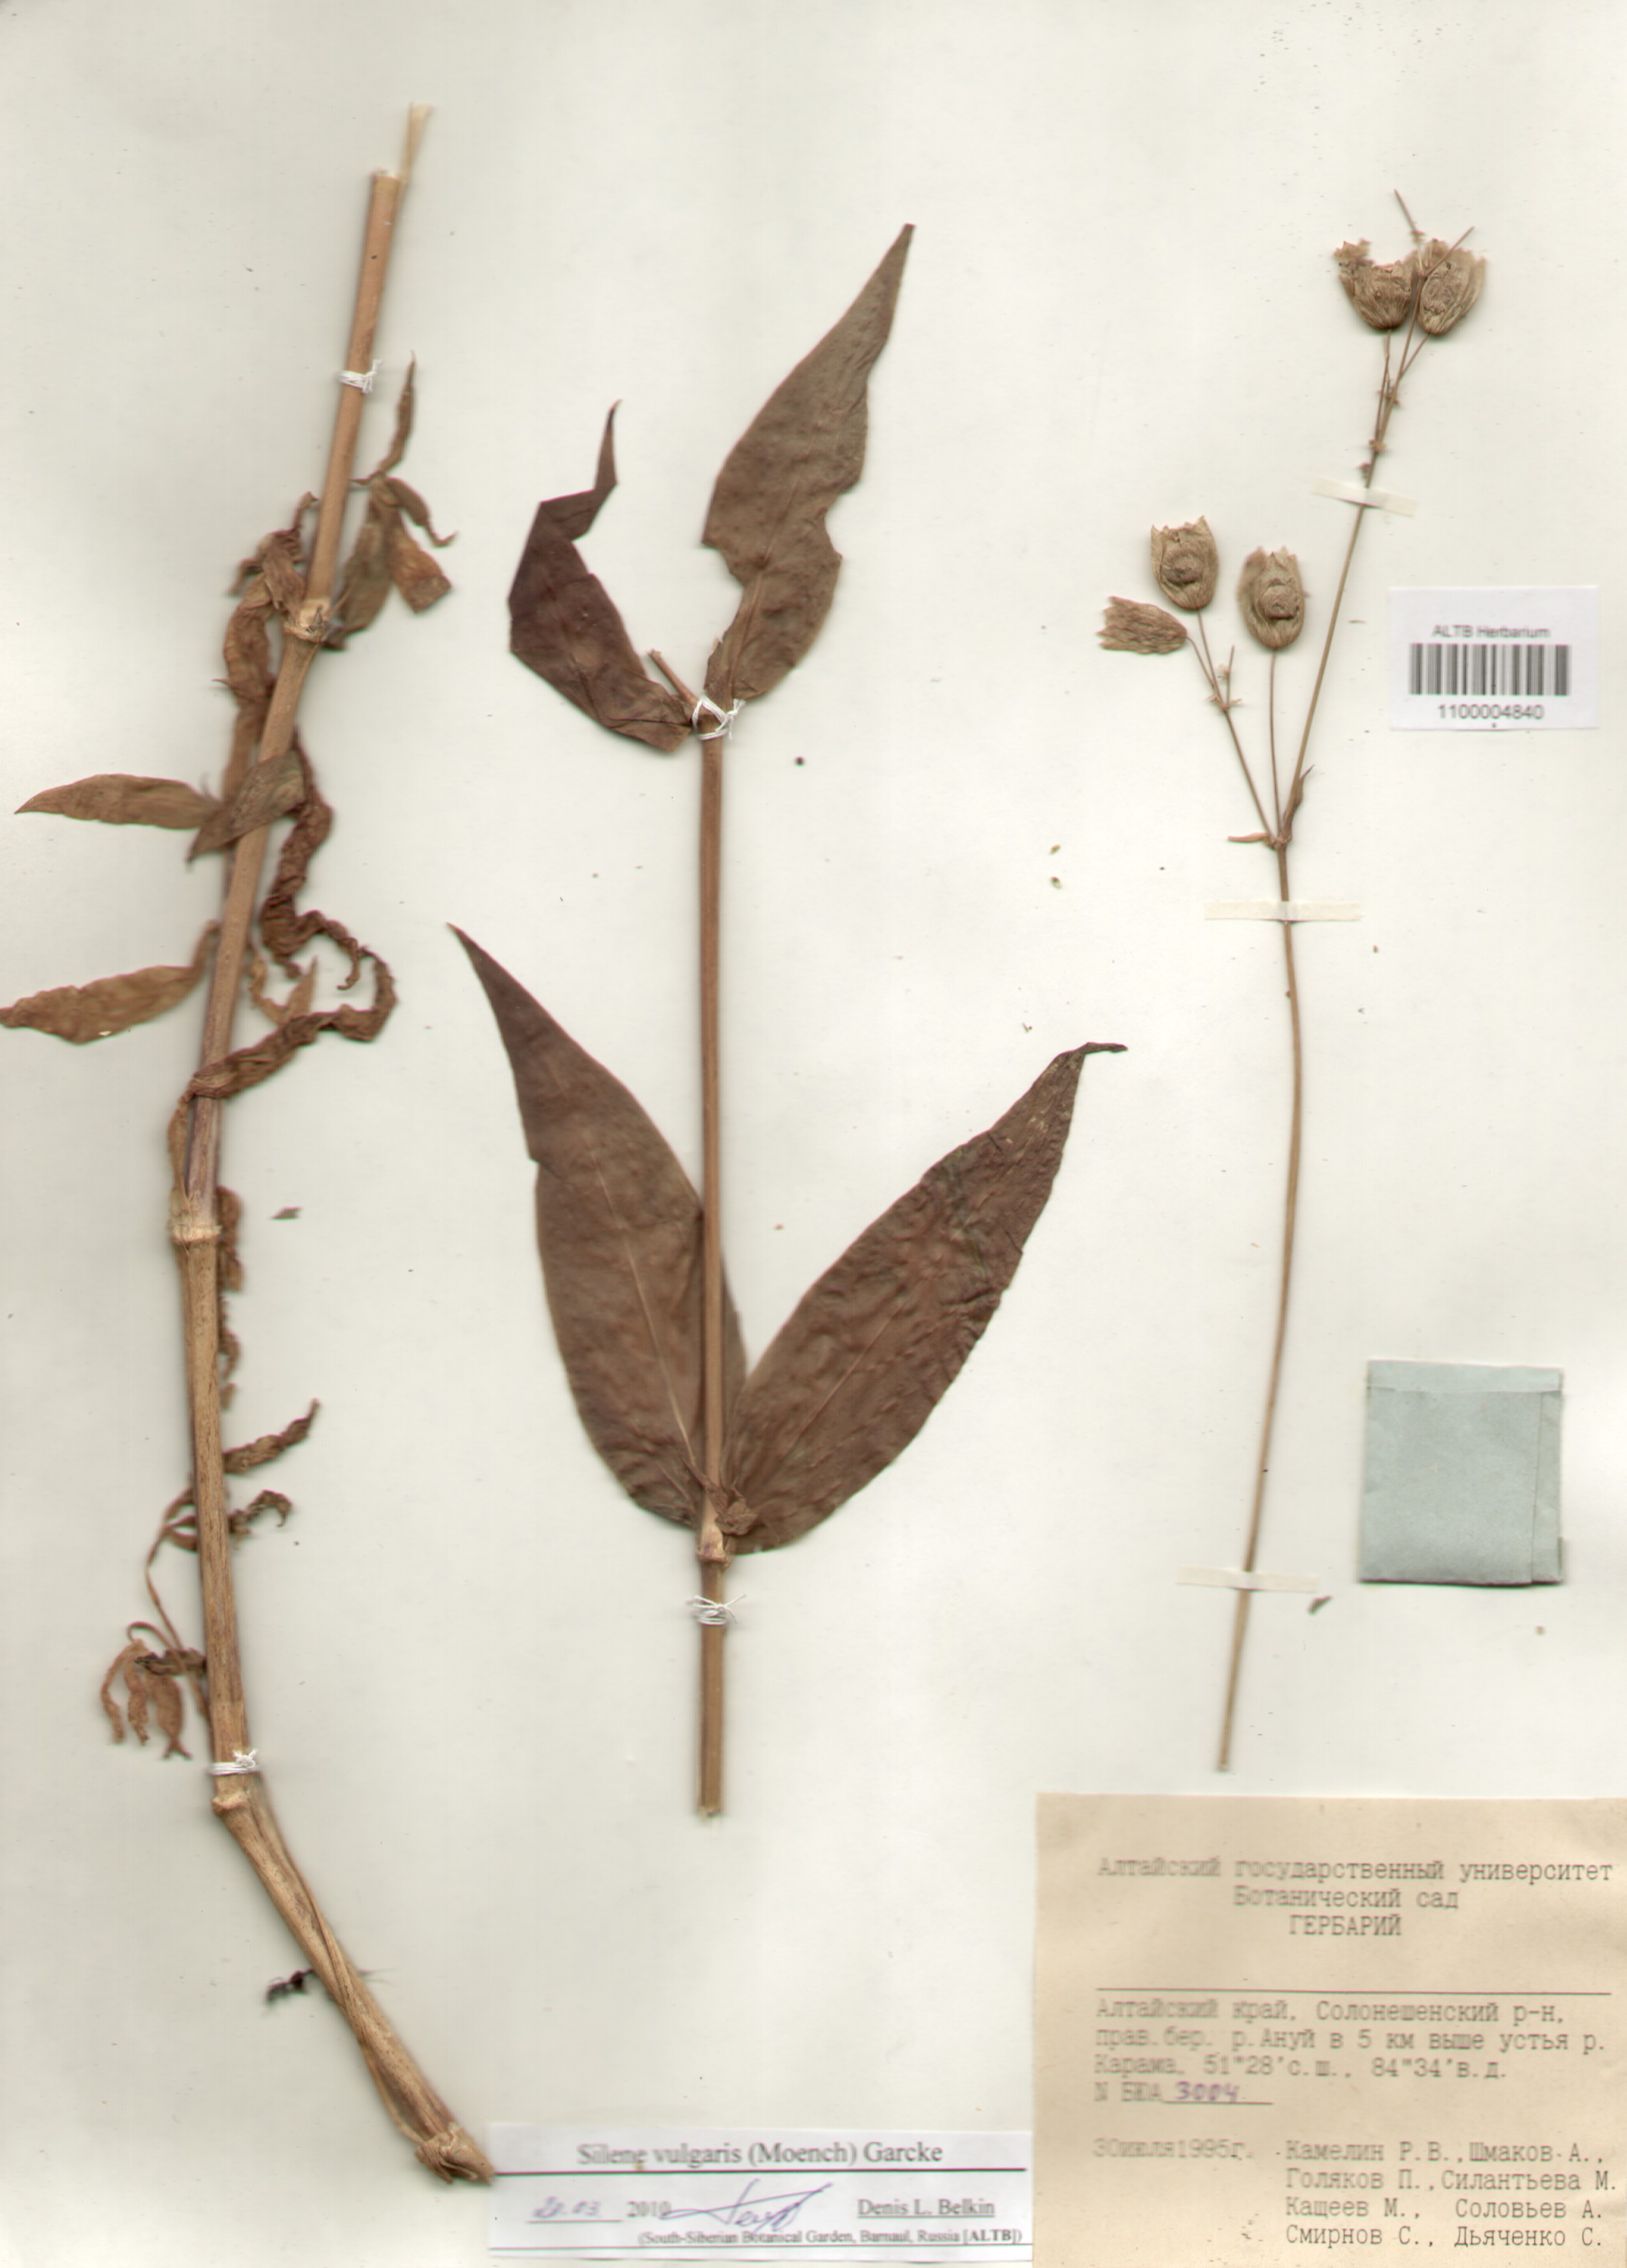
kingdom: Plantae
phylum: Tracheophyta
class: Magnoliopsida
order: Caryophyllales
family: Caryophyllaceae
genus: Silene
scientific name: Silene vulgaris
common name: Bladder campion
